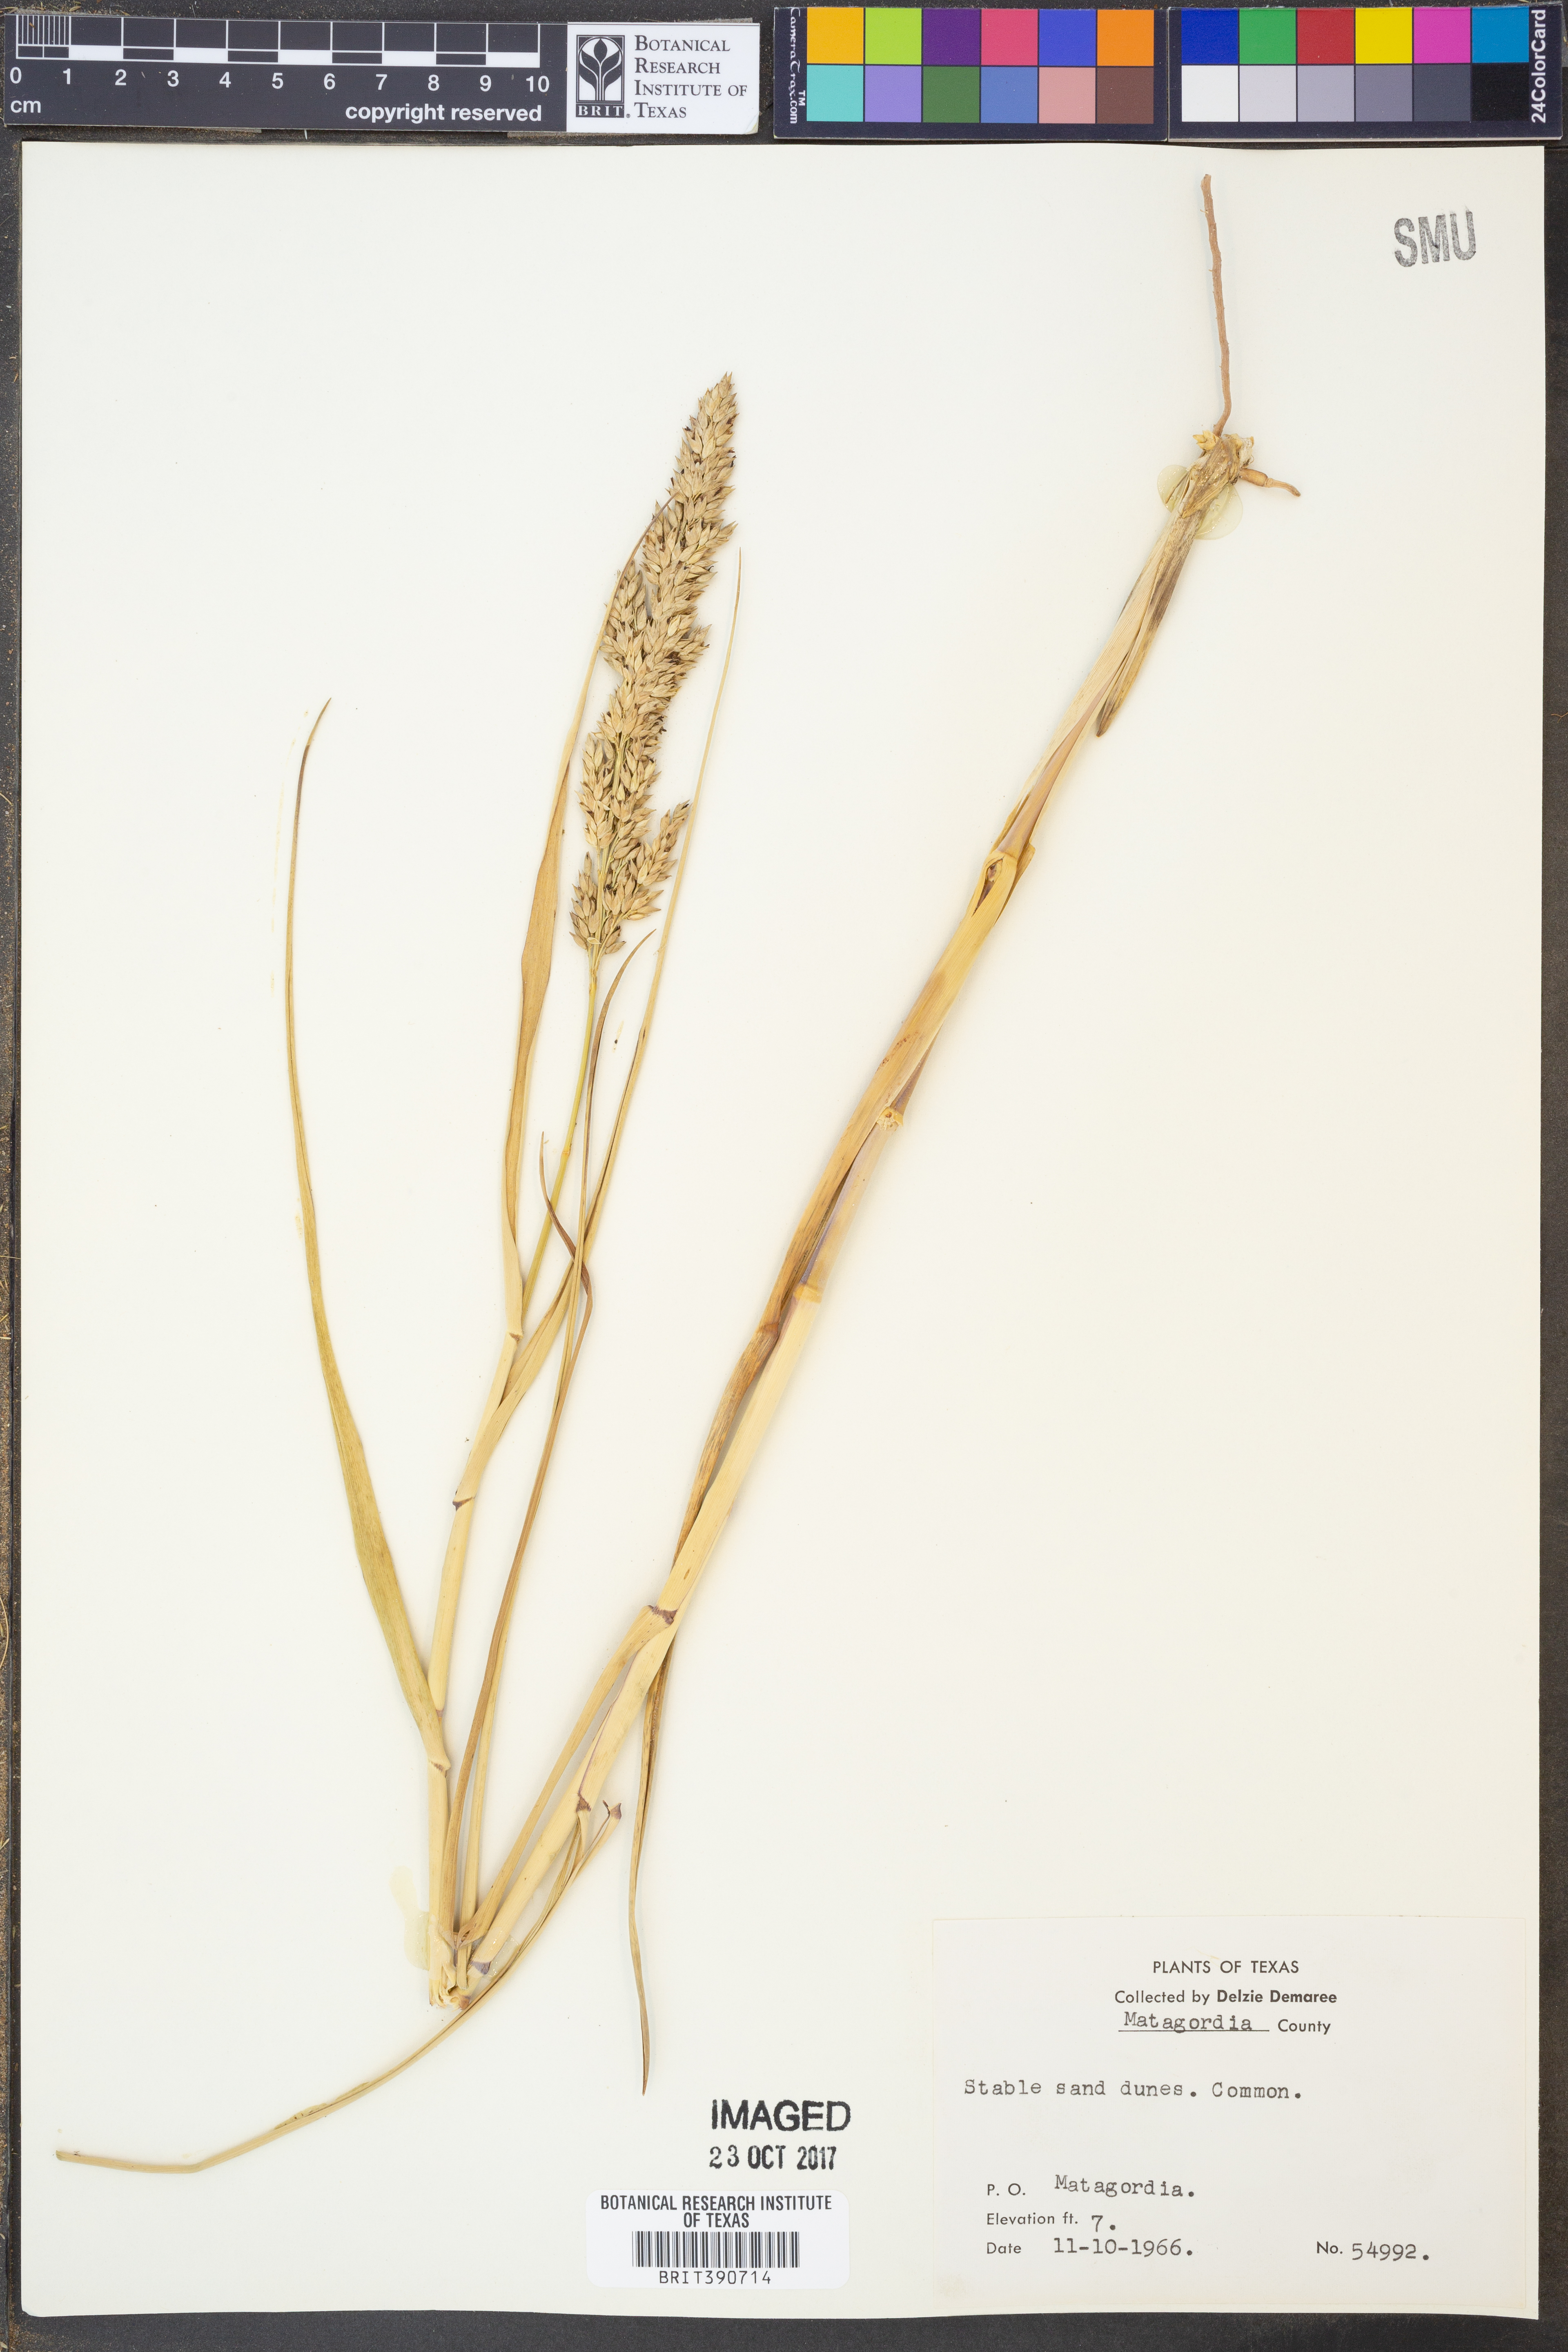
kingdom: Plantae
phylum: Tracheophyta
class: Liliopsida
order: Poales
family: Poaceae
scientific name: Poaceae
